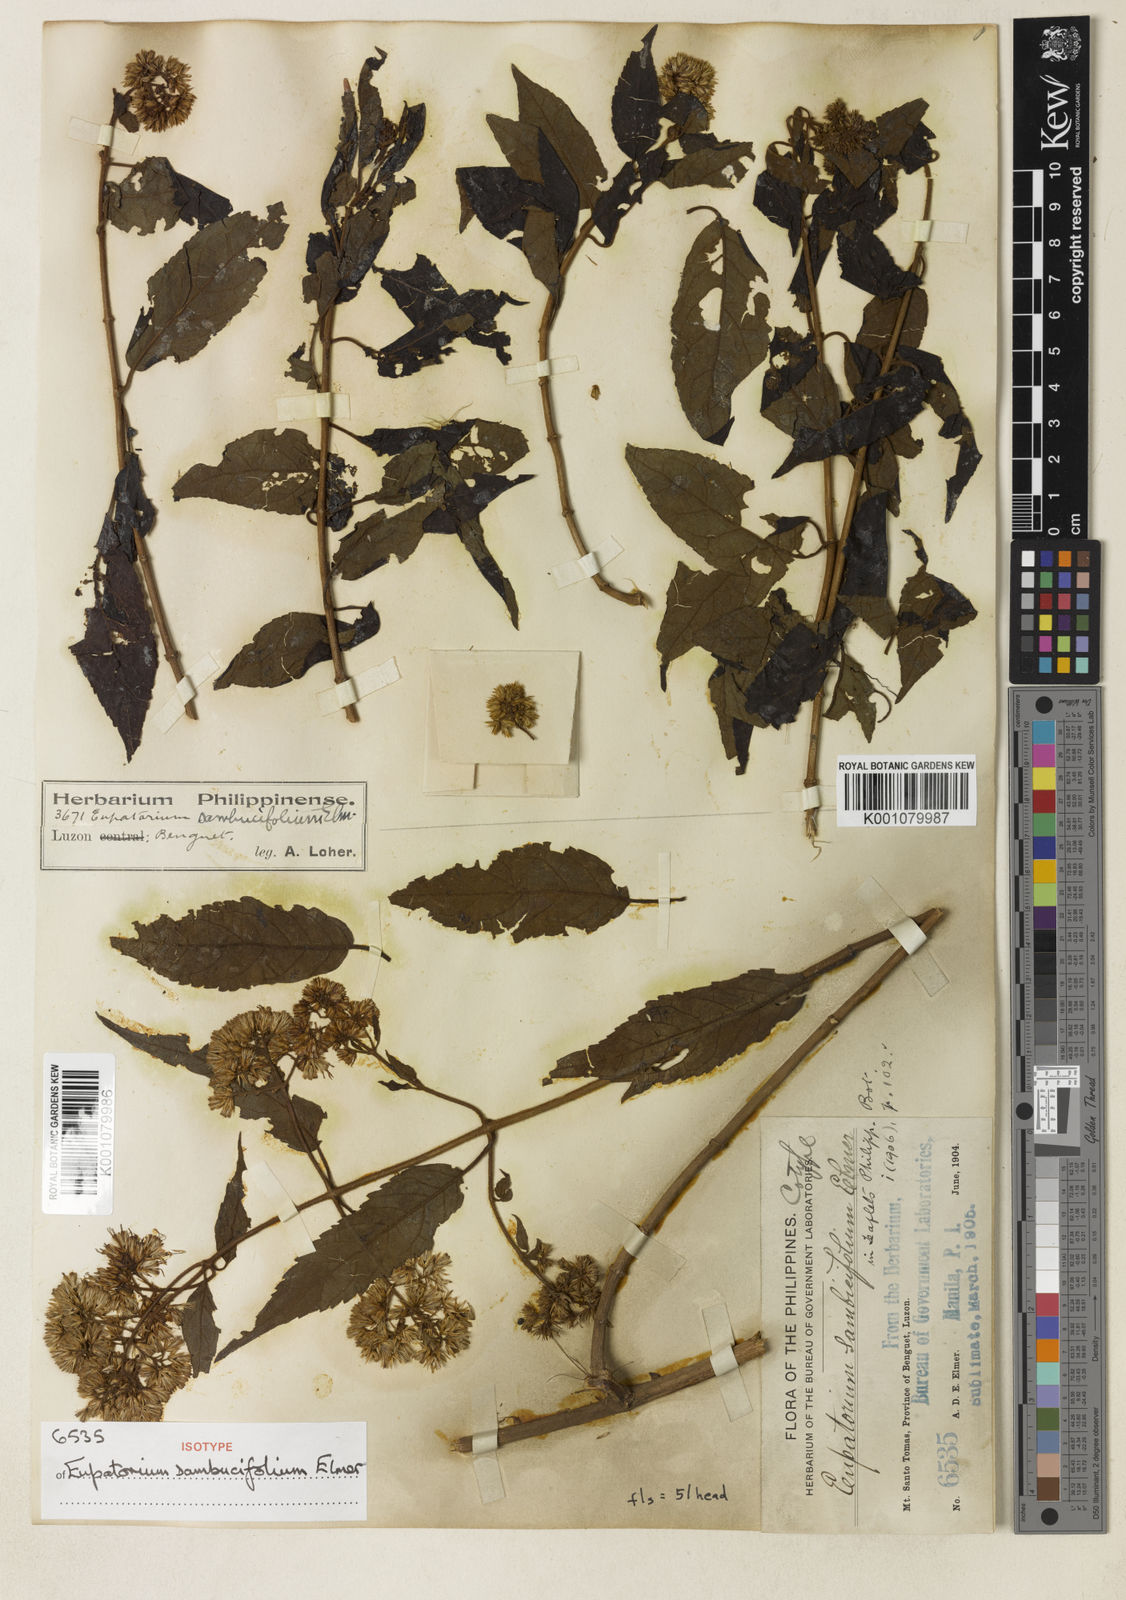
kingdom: Plantae
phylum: Tracheophyta
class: Magnoliopsida
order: Asterales
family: Asteraceae
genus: Eupatorium
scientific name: Eupatorium camiguinense
